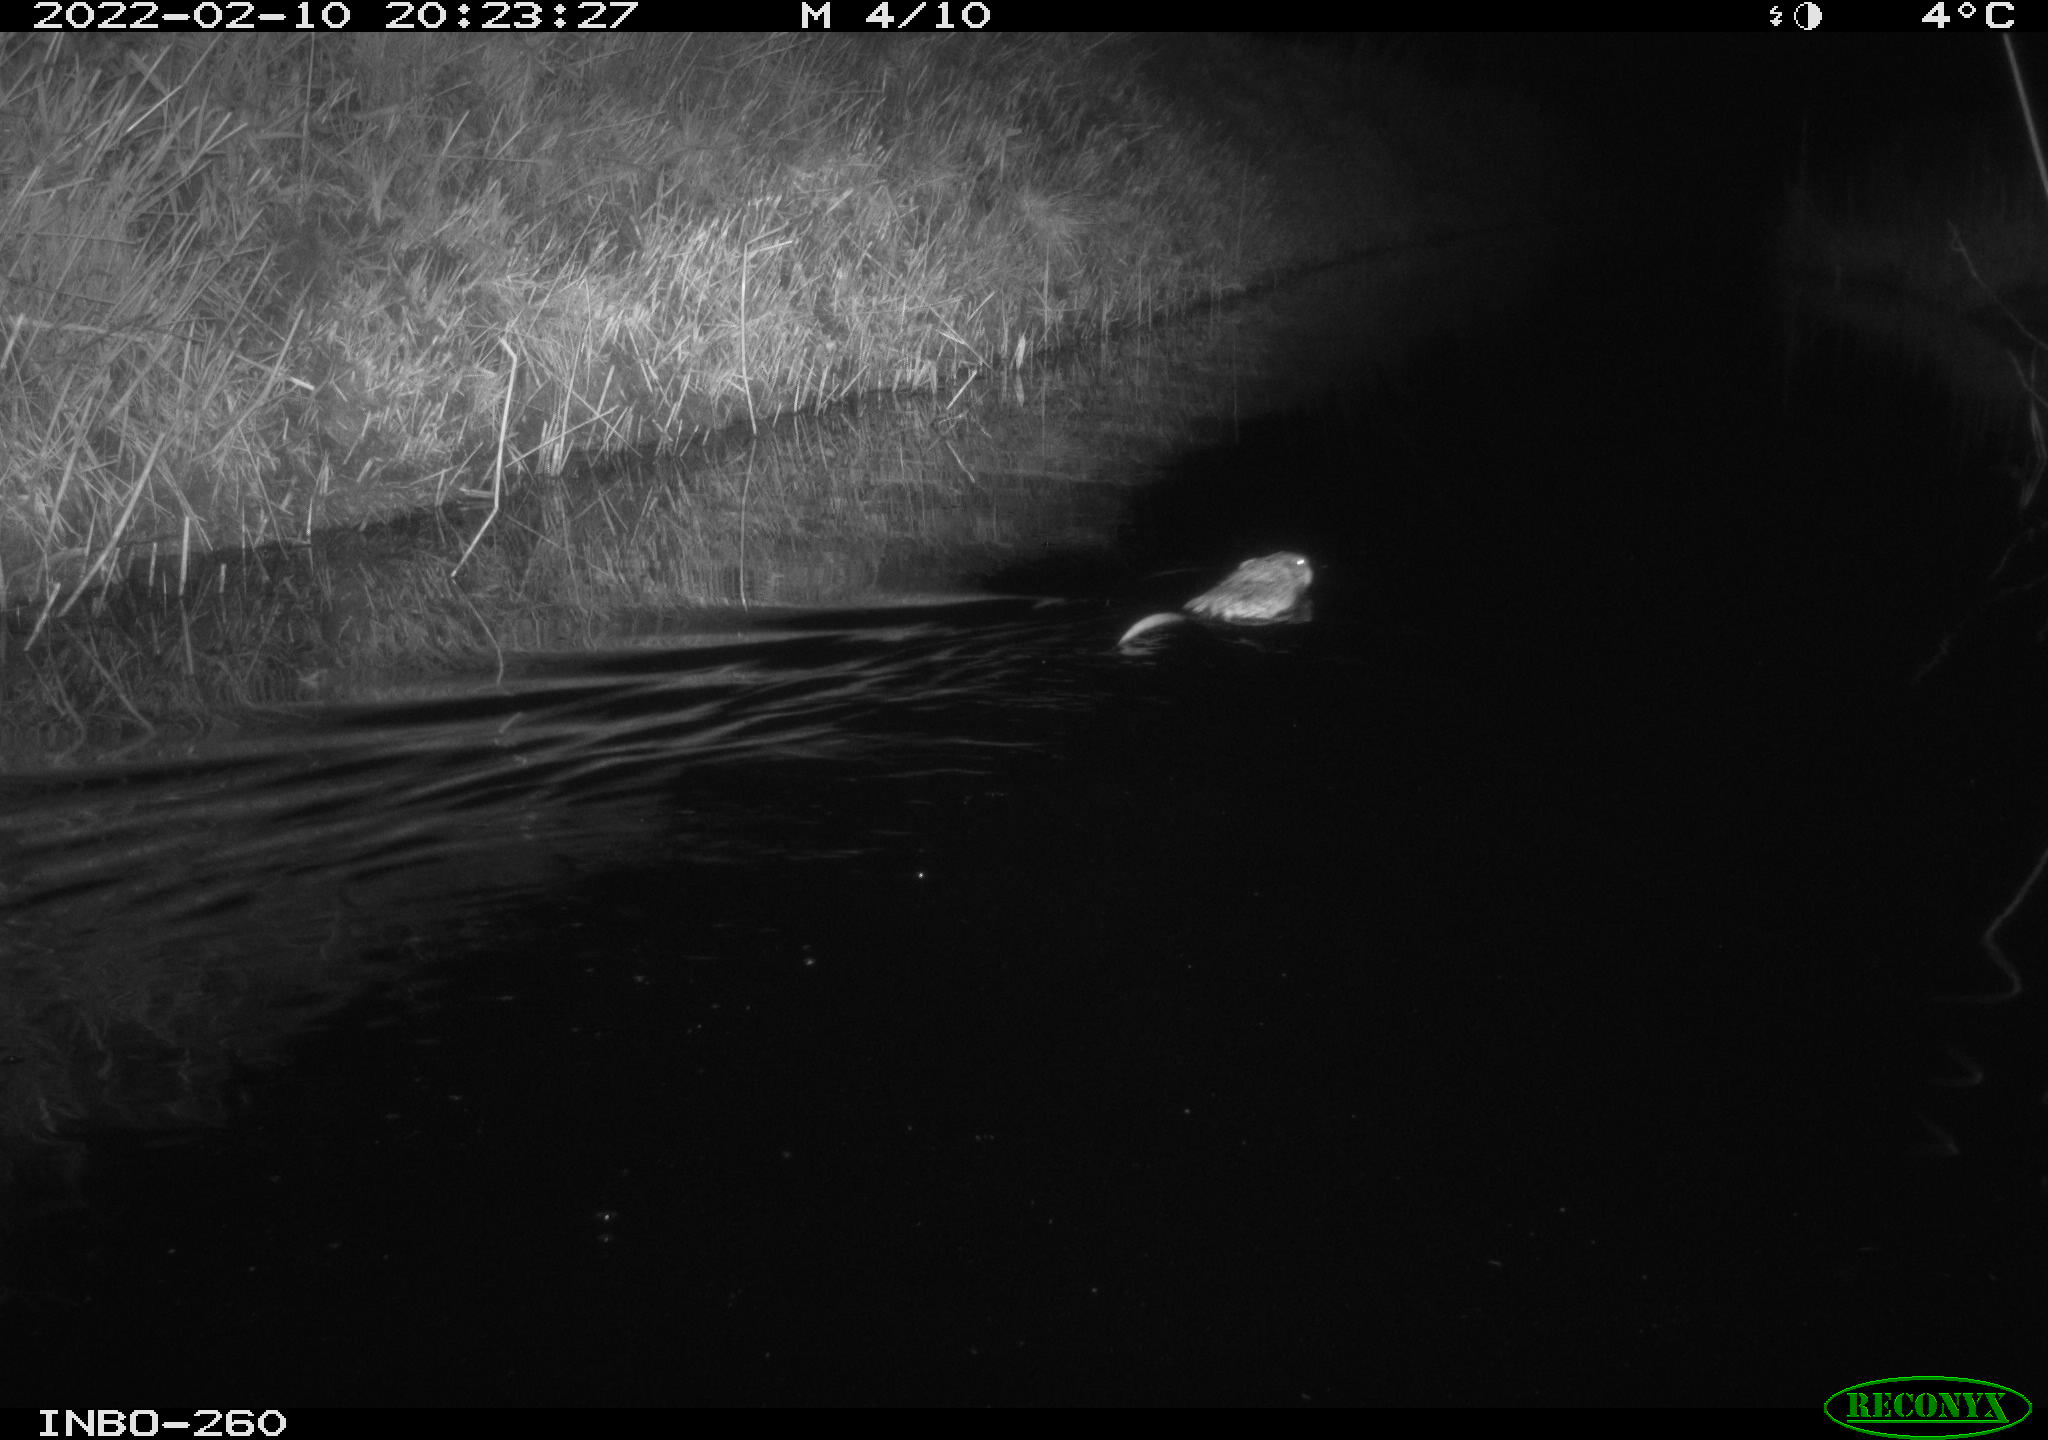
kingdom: Animalia
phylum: Chordata
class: Mammalia
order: Rodentia
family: Cricetidae
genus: Ondatra
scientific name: Ondatra zibethicus
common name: Muskrat
